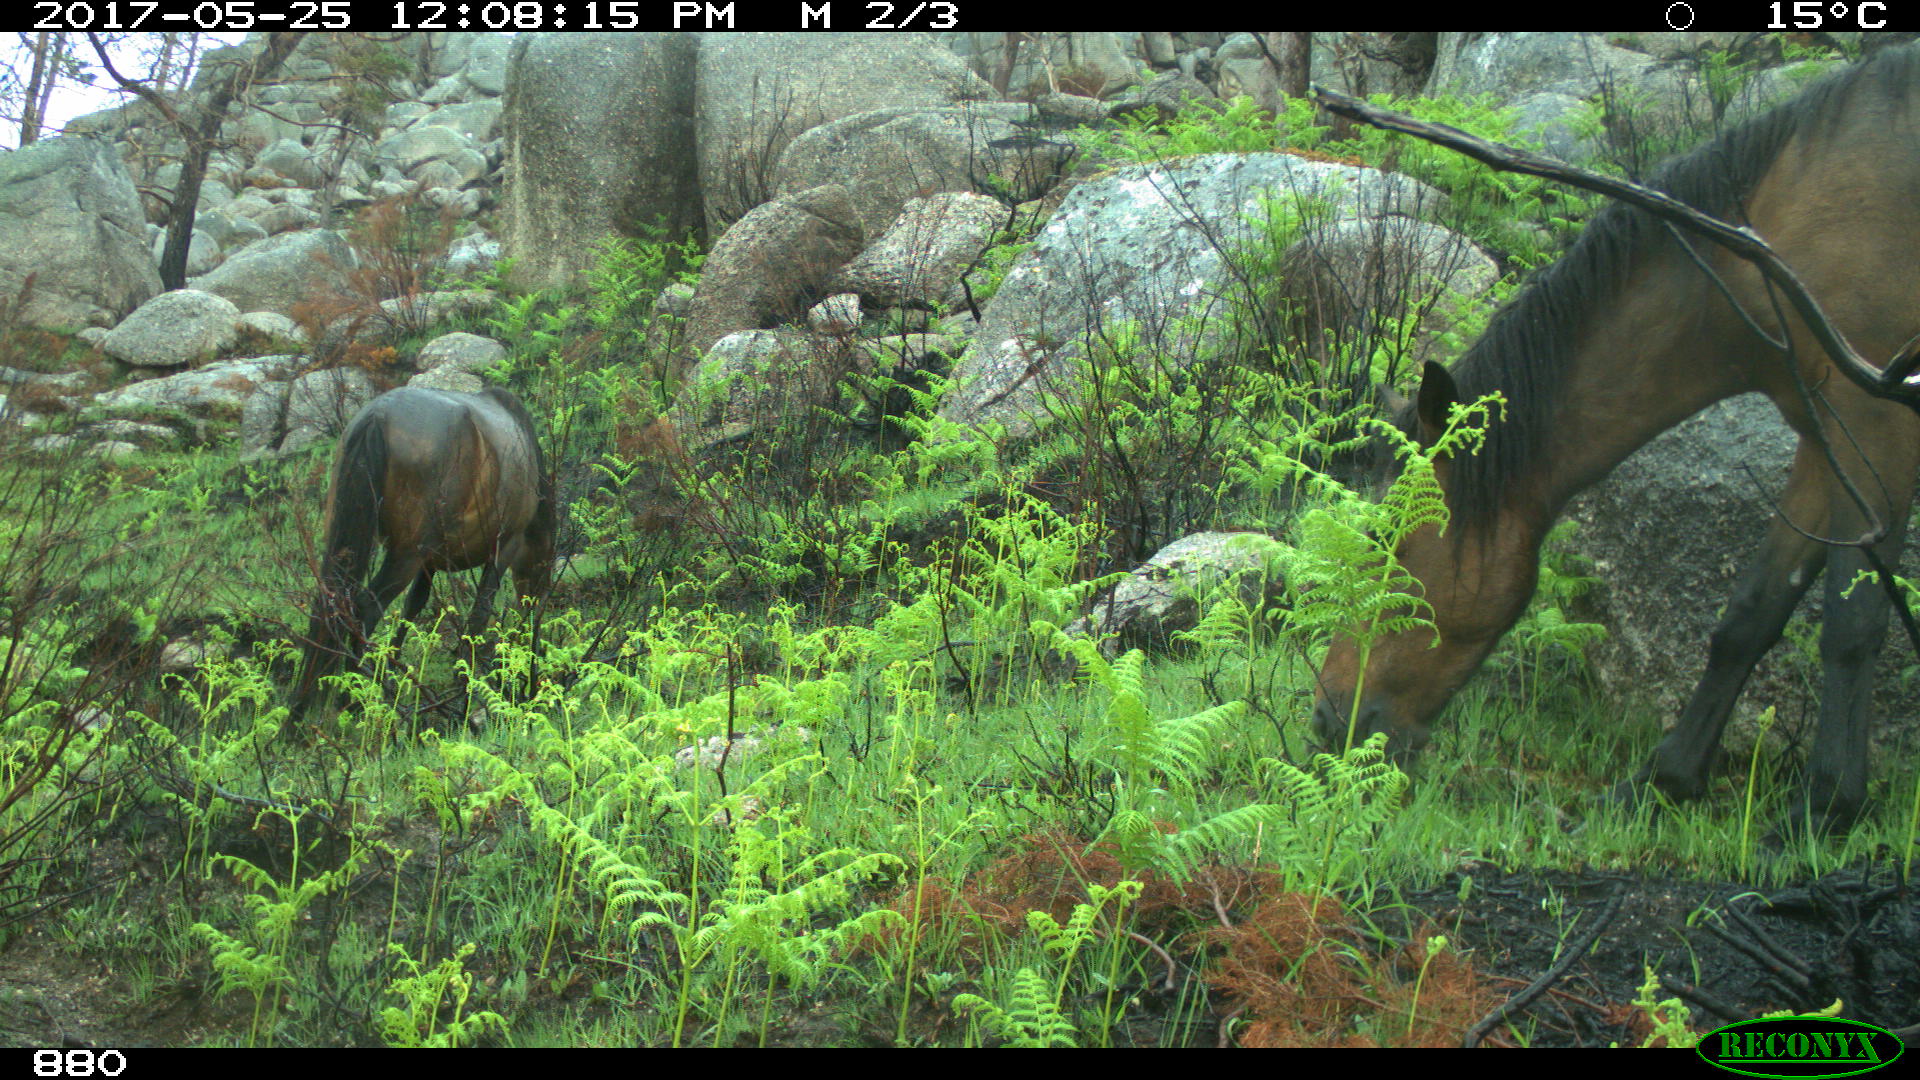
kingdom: Animalia
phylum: Chordata
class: Mammalia
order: Perissodactyla
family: Equidae
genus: Equus
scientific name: Equus caballus
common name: Horse
